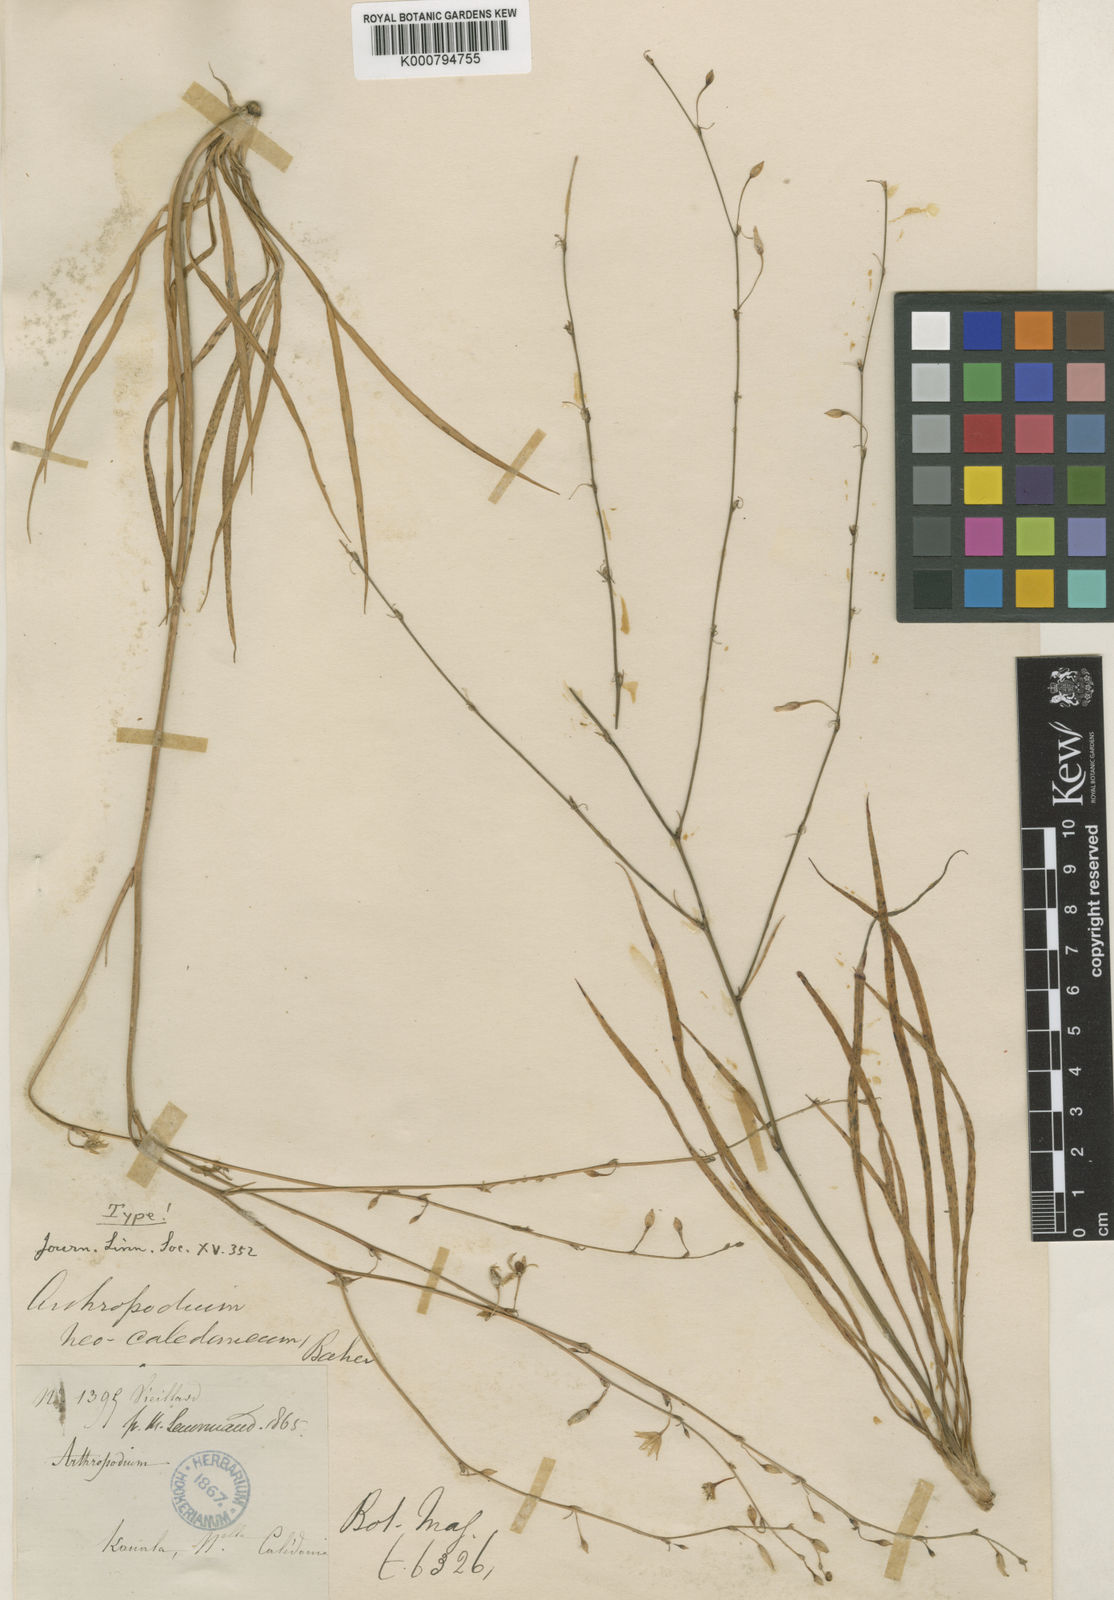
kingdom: Plantae
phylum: Tracheophyta
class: Liliopsida
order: Asparagales
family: Asparagaceae
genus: Arthropodium
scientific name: Arthropodium neocaledonicum
